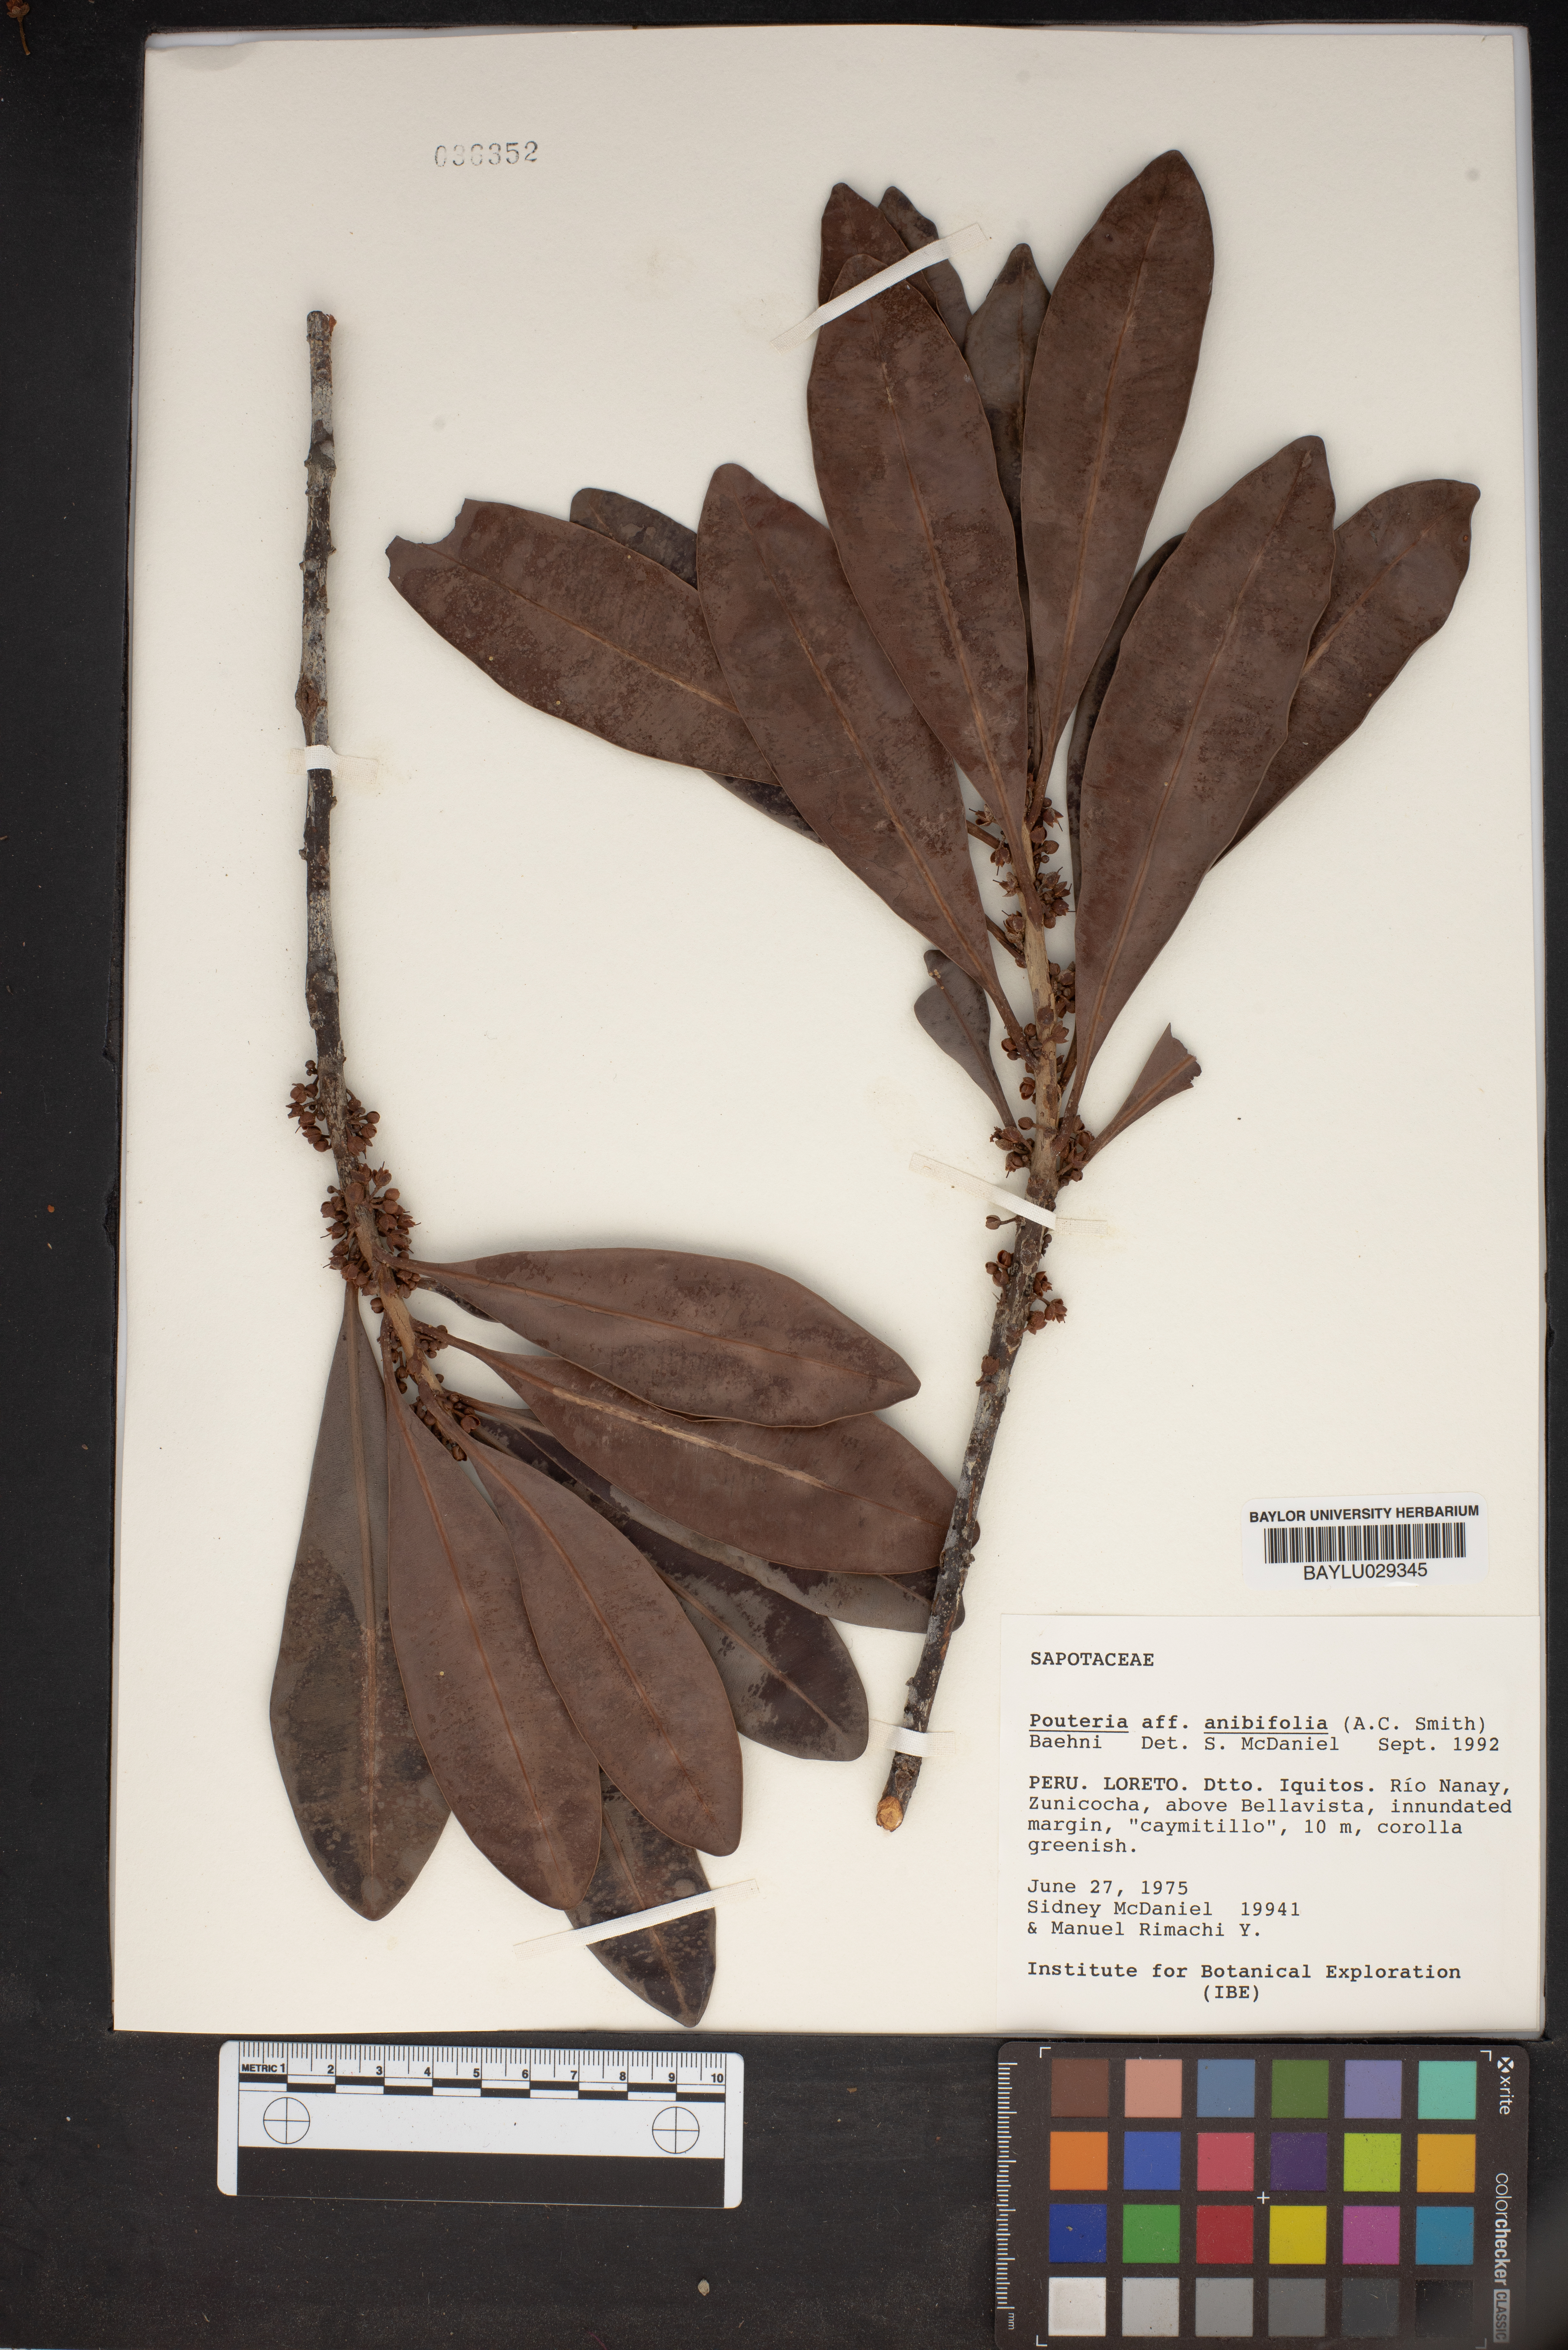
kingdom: Plantae
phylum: Tracheophyta
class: Magnoliopsida
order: Ericales
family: Sapotaceae
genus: Pouteria
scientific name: Pouteria reticulata
